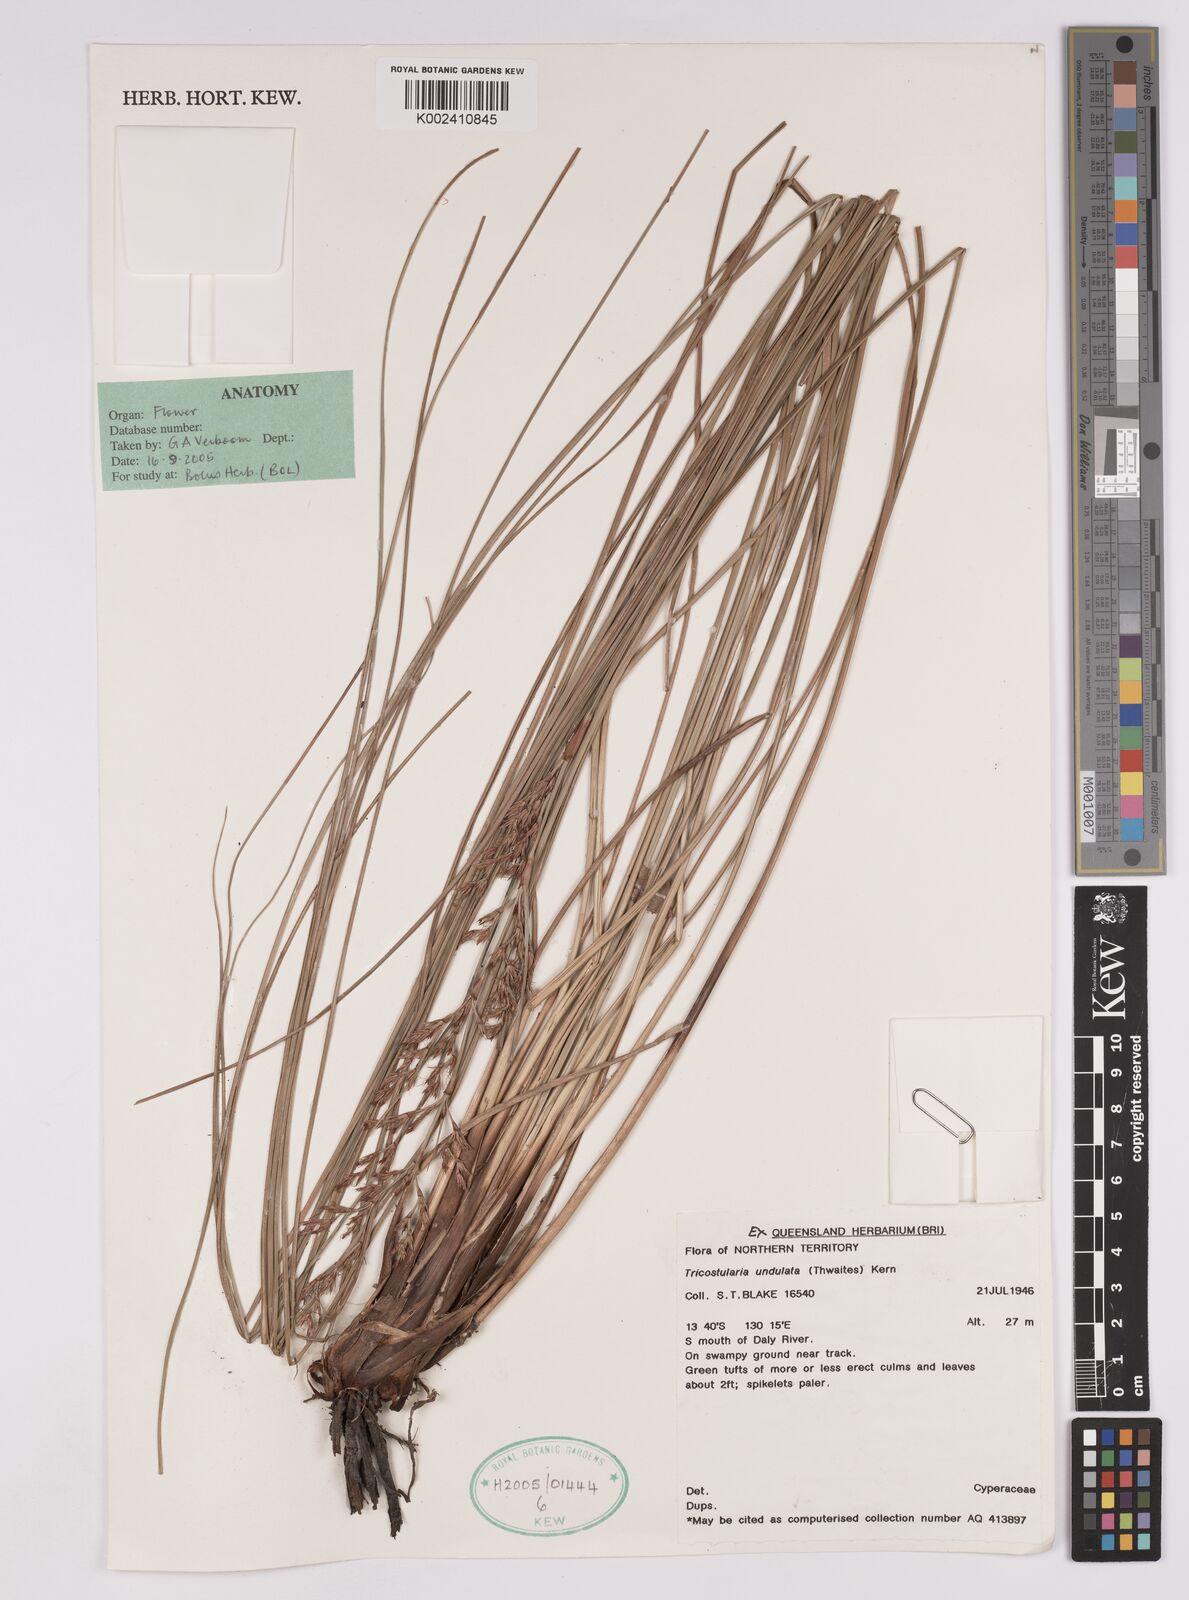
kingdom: Plantae
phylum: Tracheophyta
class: Liliopsida
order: Poales
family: Cyperaceae
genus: Anthelepis
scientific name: Anthelepis undulata
